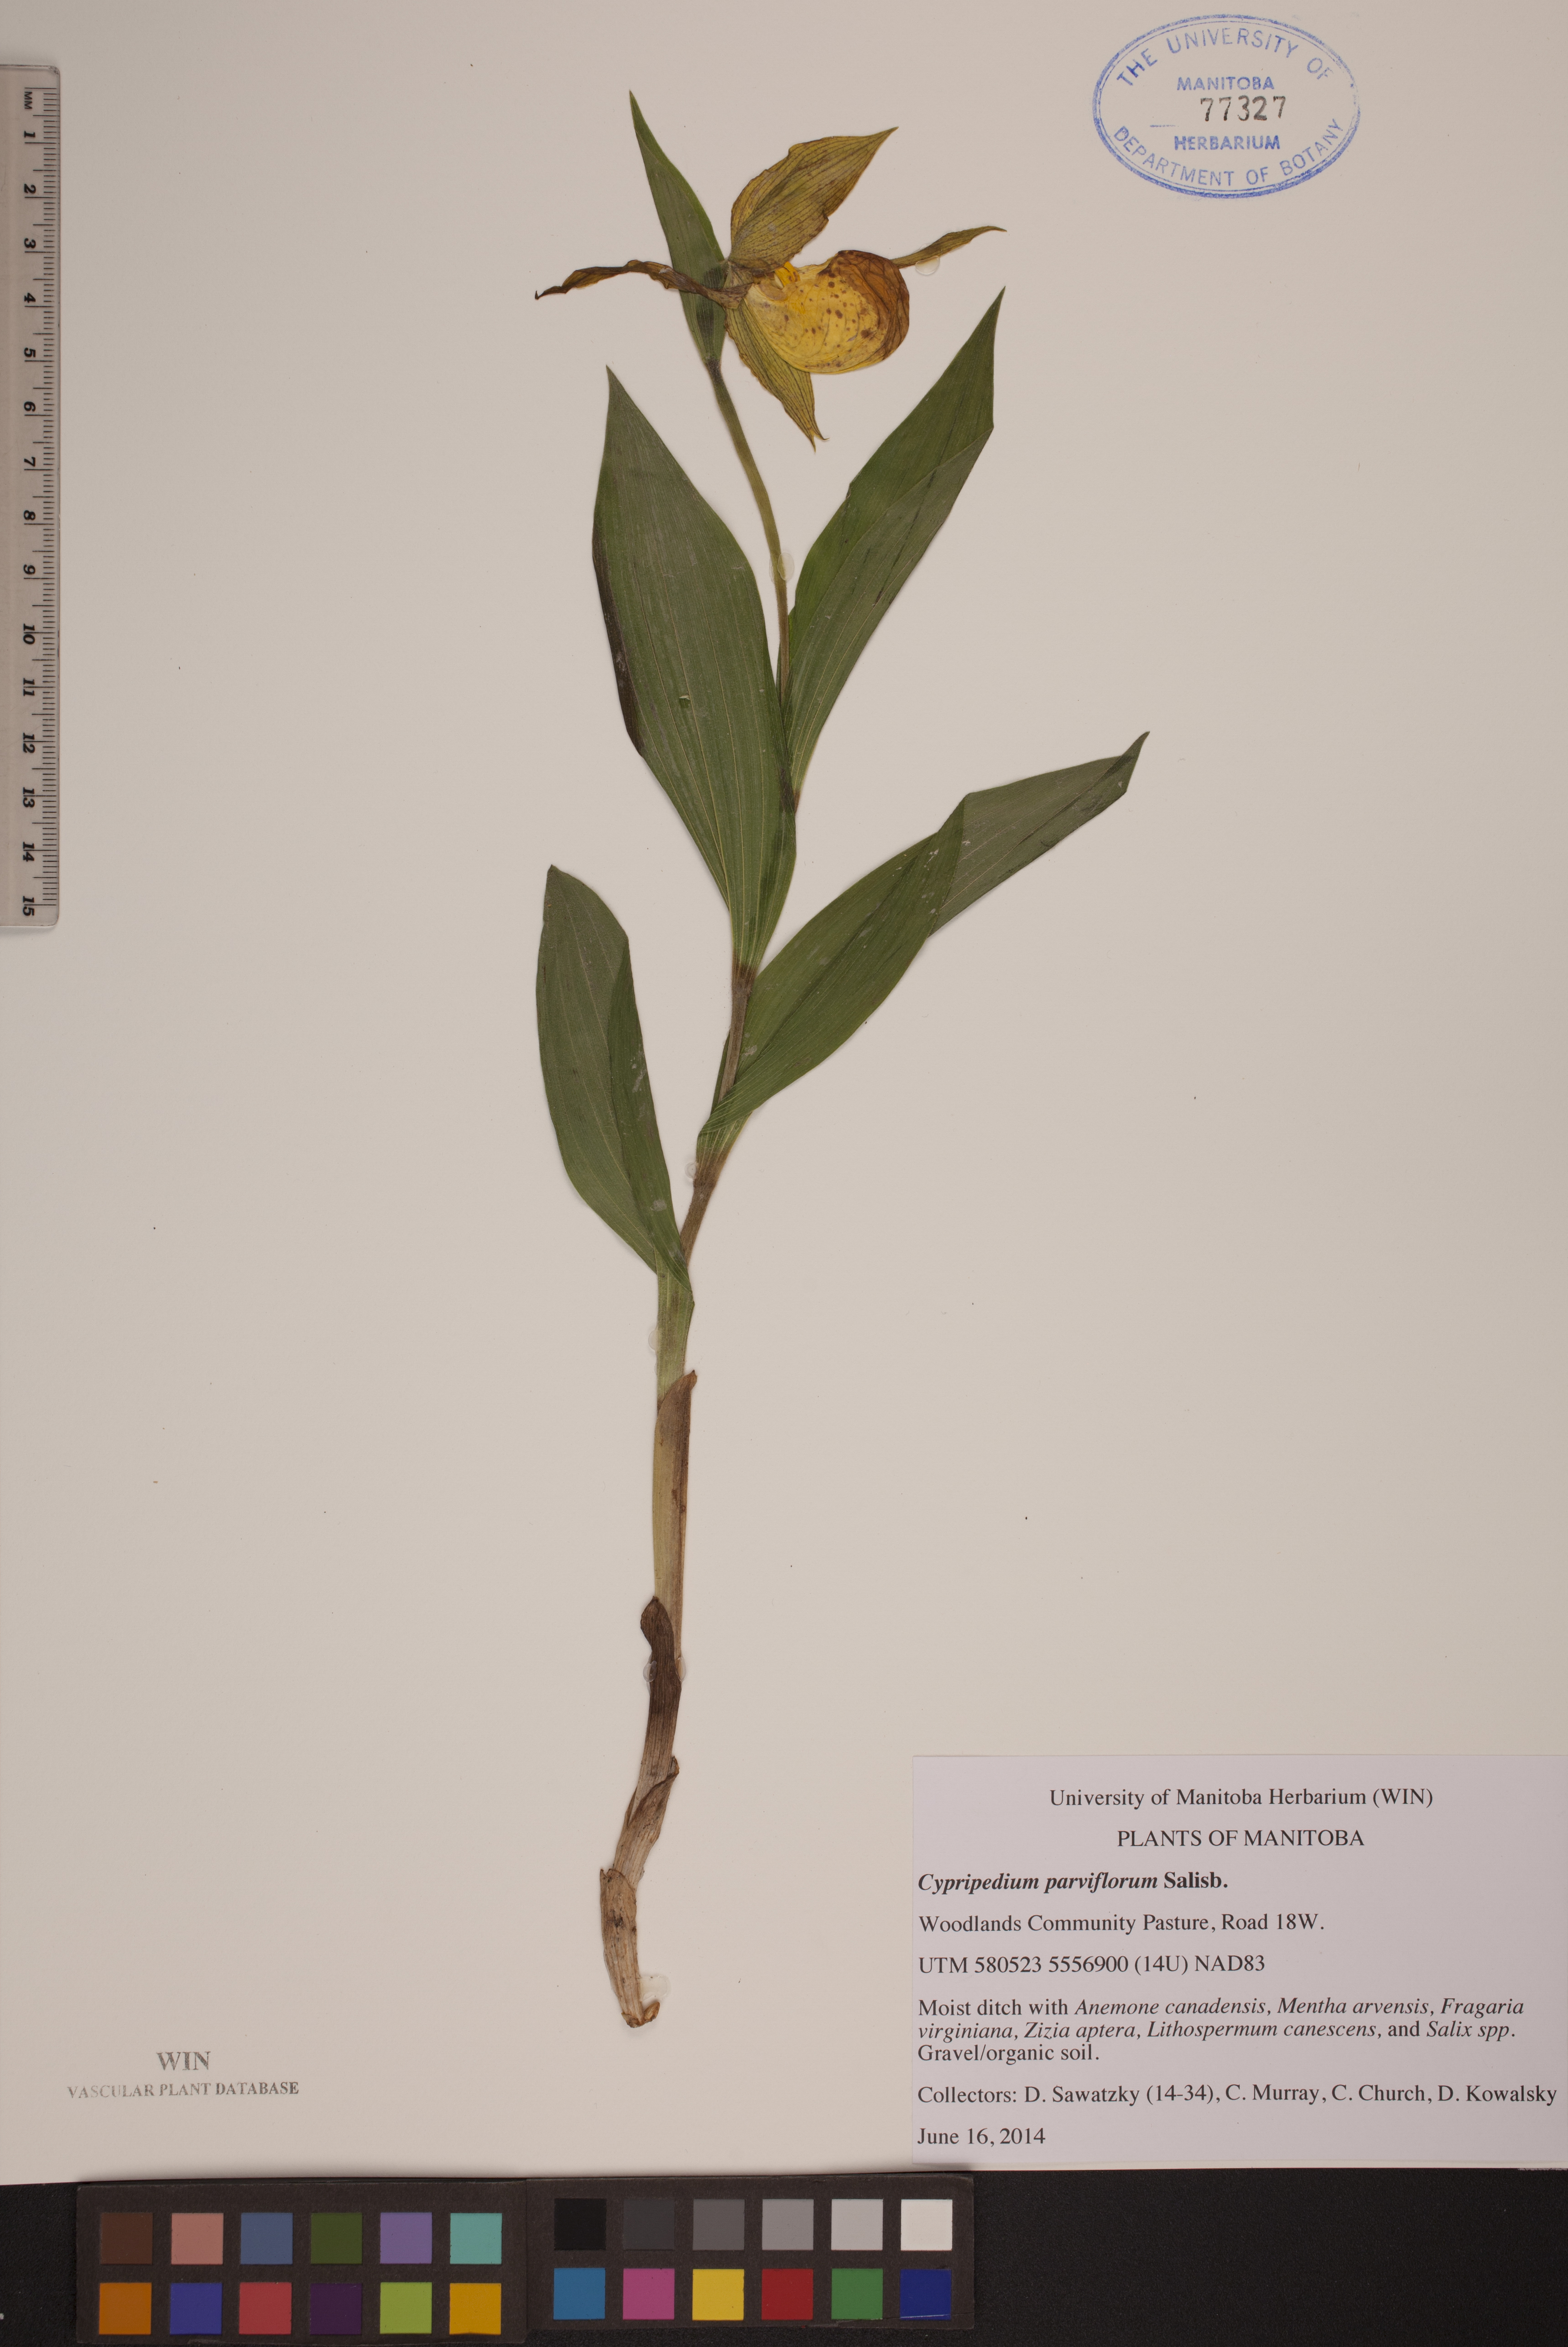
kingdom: Plantae
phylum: Tracheophyta
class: Liliopsida
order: Asparagales
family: Orchidaceae
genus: Cypripedium
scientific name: Cypripedium parviflorum
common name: American yellow lady's-slipper
